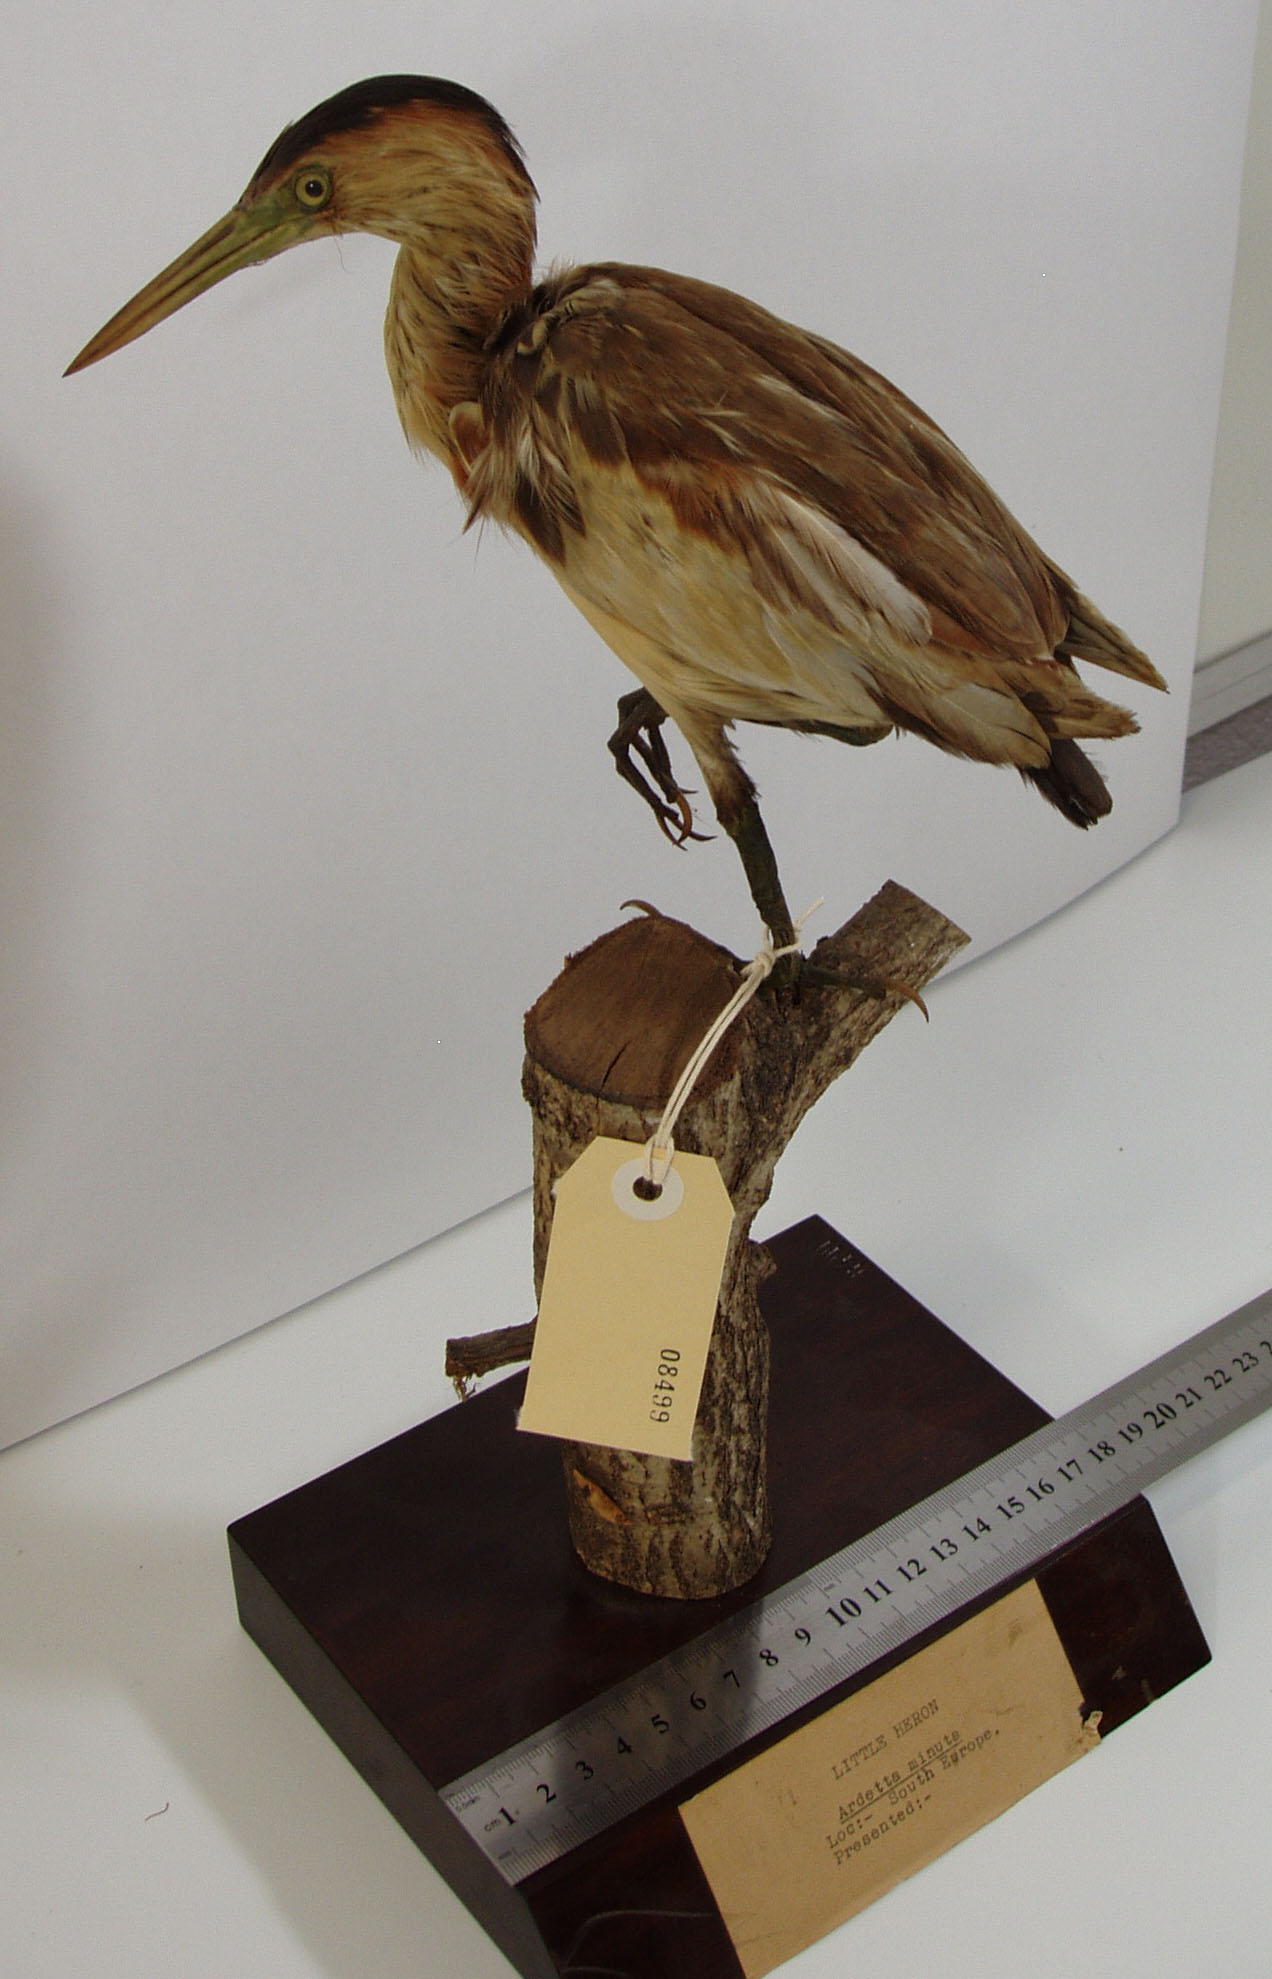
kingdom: Animalia
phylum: Chordata
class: Aves
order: Pelecaniformes
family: Ardeidae
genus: Ixobrychus
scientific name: Ixobrychus minutus
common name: Little bittern
